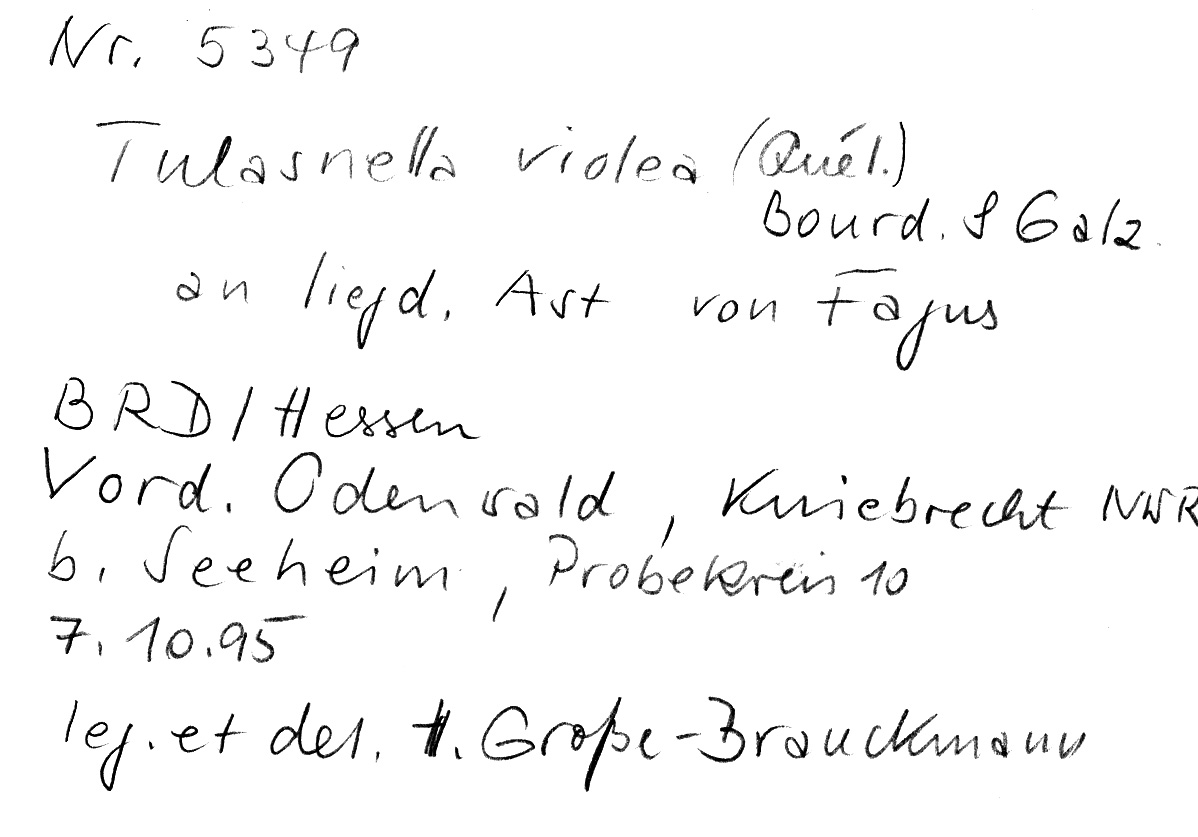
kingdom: Plantae
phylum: Tracheophyta
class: Magnoliopsida
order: Fagales
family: Fagaceae
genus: Fagus
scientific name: Fagus sylvatica
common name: Beech
